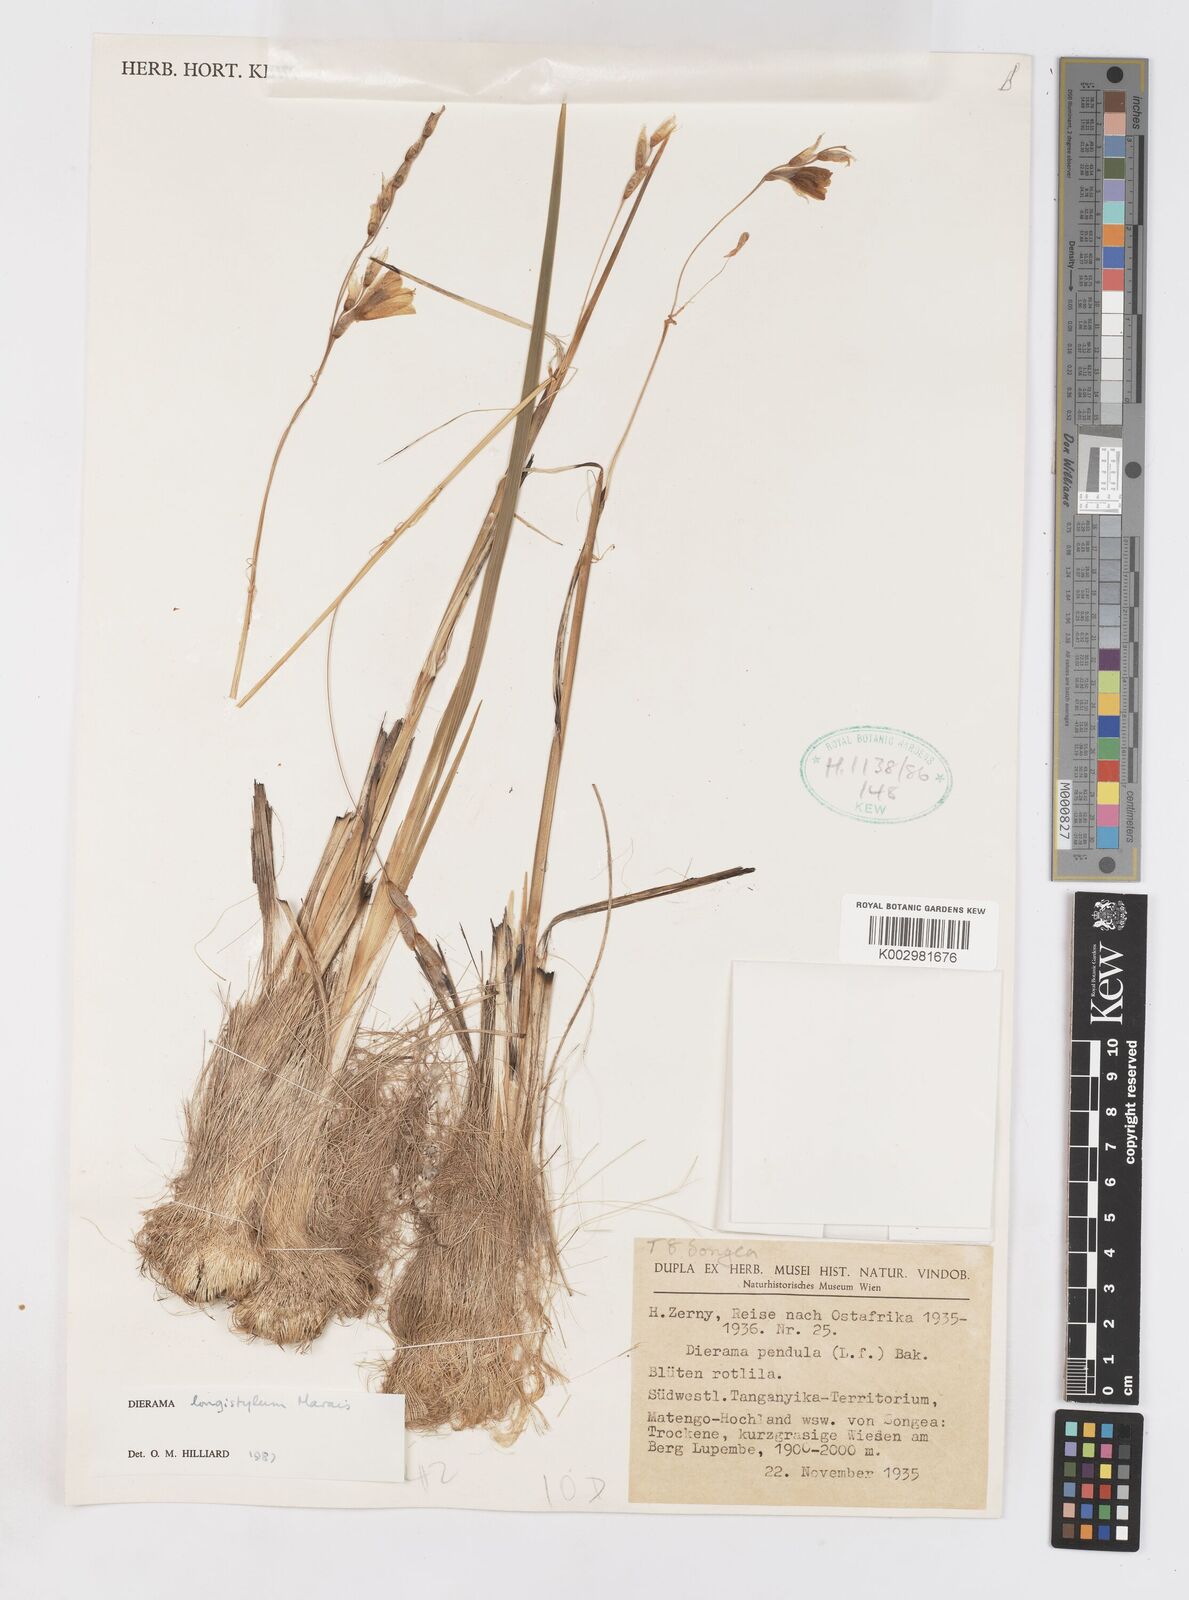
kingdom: Plantae
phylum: Tracheophyta
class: Liliopsida
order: Asparagales
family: Iridaceae
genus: Dierama
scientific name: Dierama longistylum
